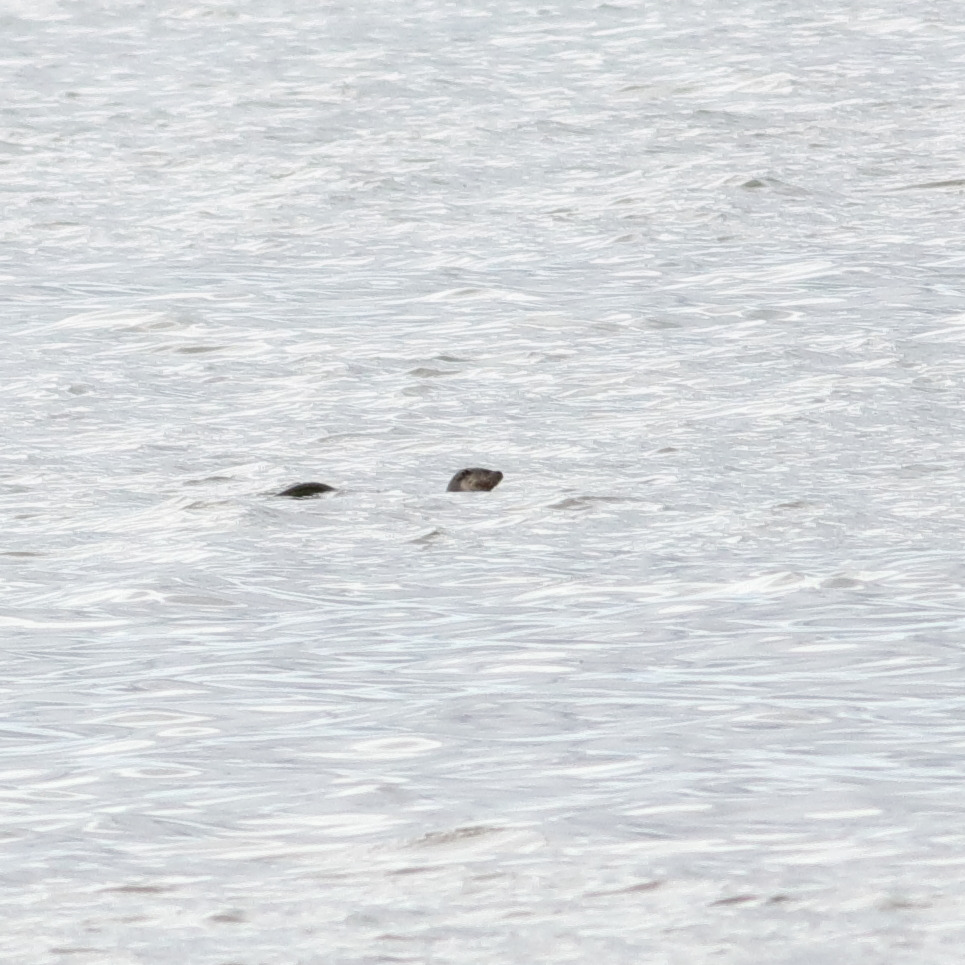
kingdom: Animalia
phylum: Chordata
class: Mammalia
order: Carnivora
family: Mustelidae
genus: Lutra
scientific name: Lutra lutra
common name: Odder
